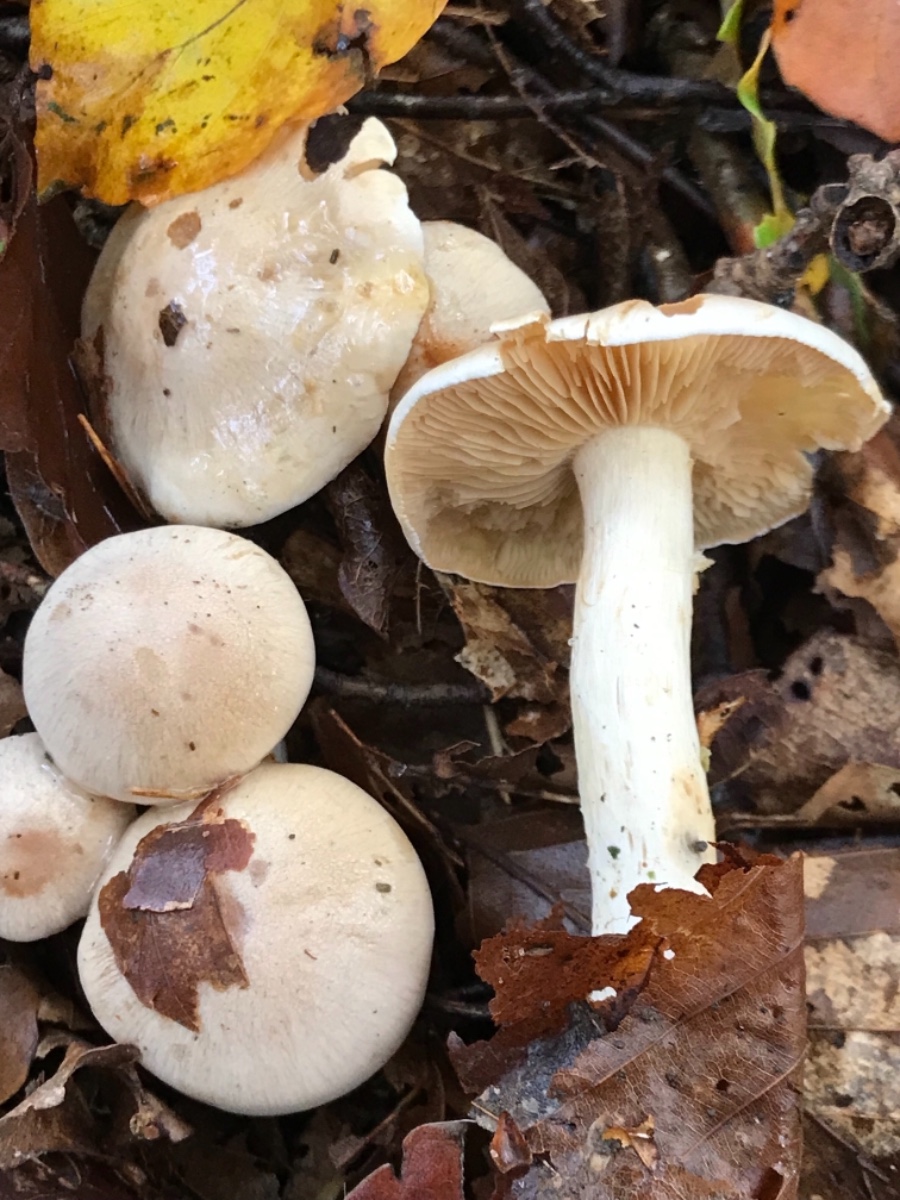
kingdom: Fungi
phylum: Basidiomycota
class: Agaricomycetes
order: Agaricales
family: Cortinariaceae
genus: Thaxterogaster
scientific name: Thaxterogaster leucoluteolus
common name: isabella slørhat
